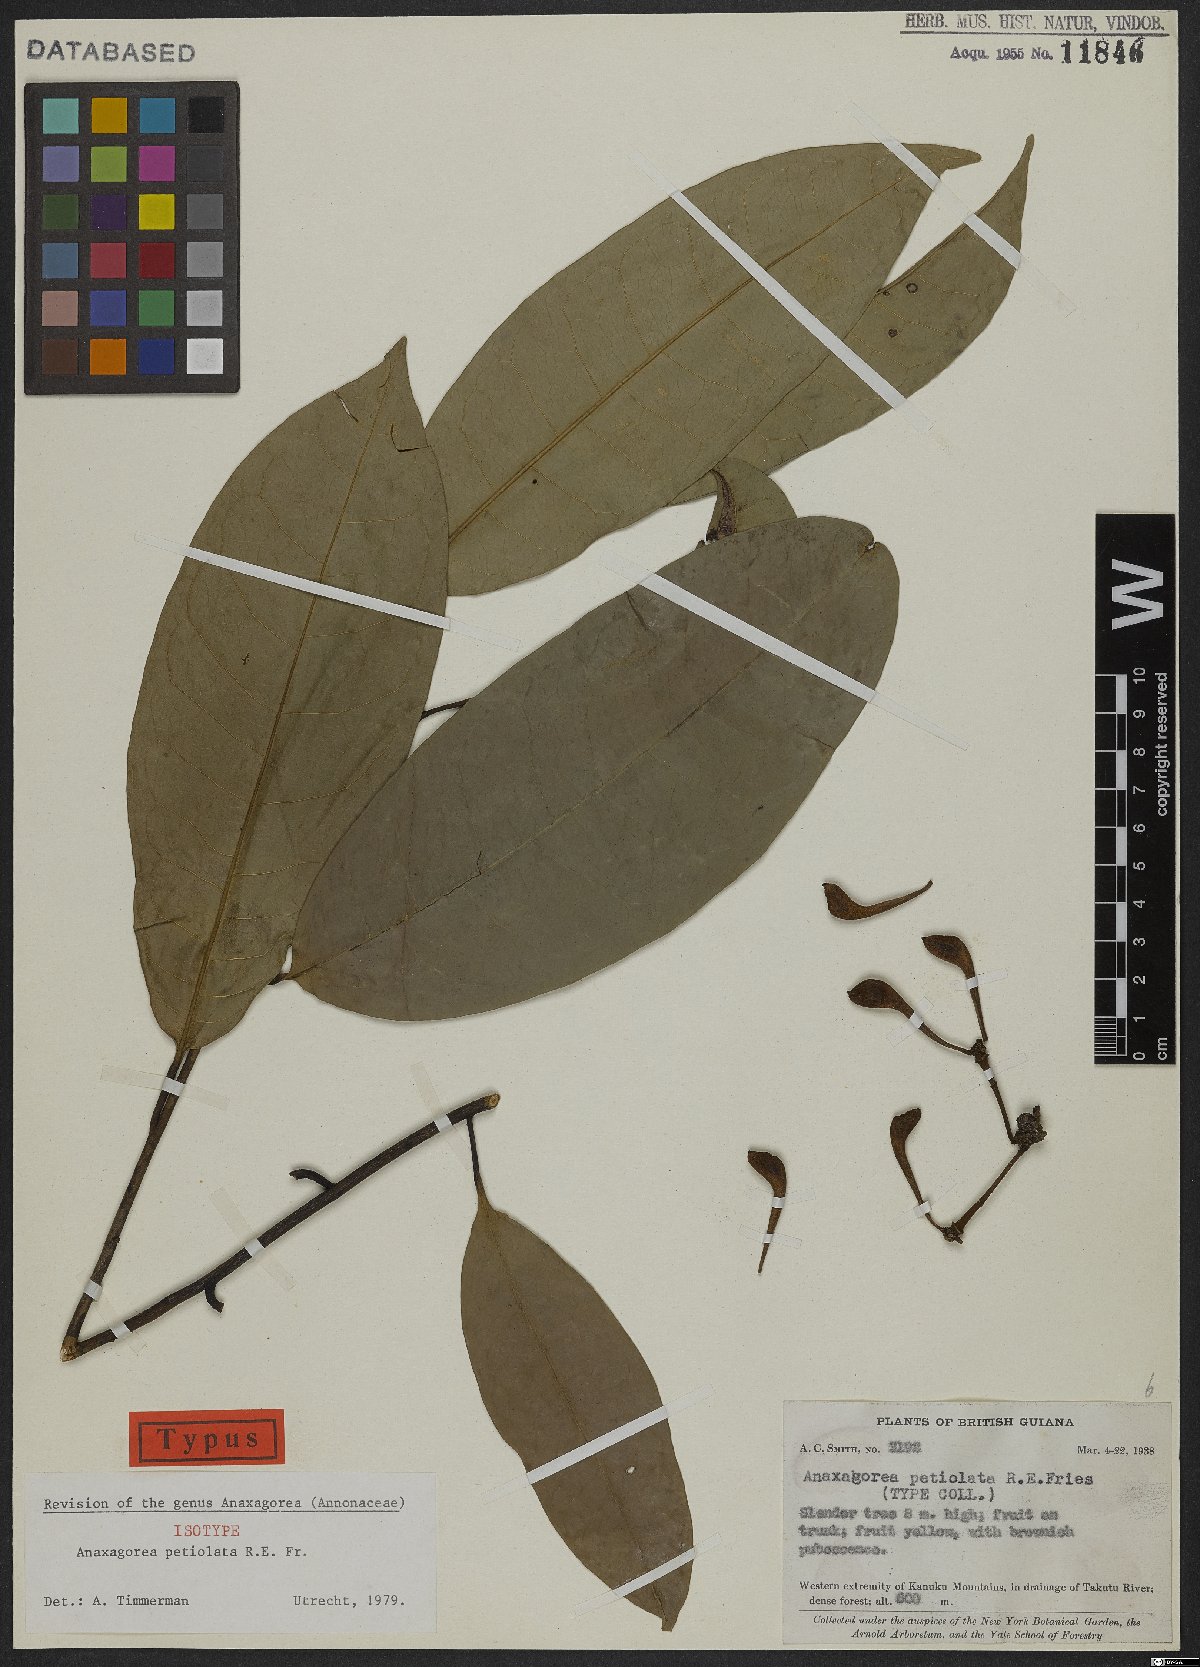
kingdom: Plantae
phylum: Tracheophyta
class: Magnoliopsida
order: Magnoliales
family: Annonaceae
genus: Anaxagorea
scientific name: Anaxagorea petiolata
